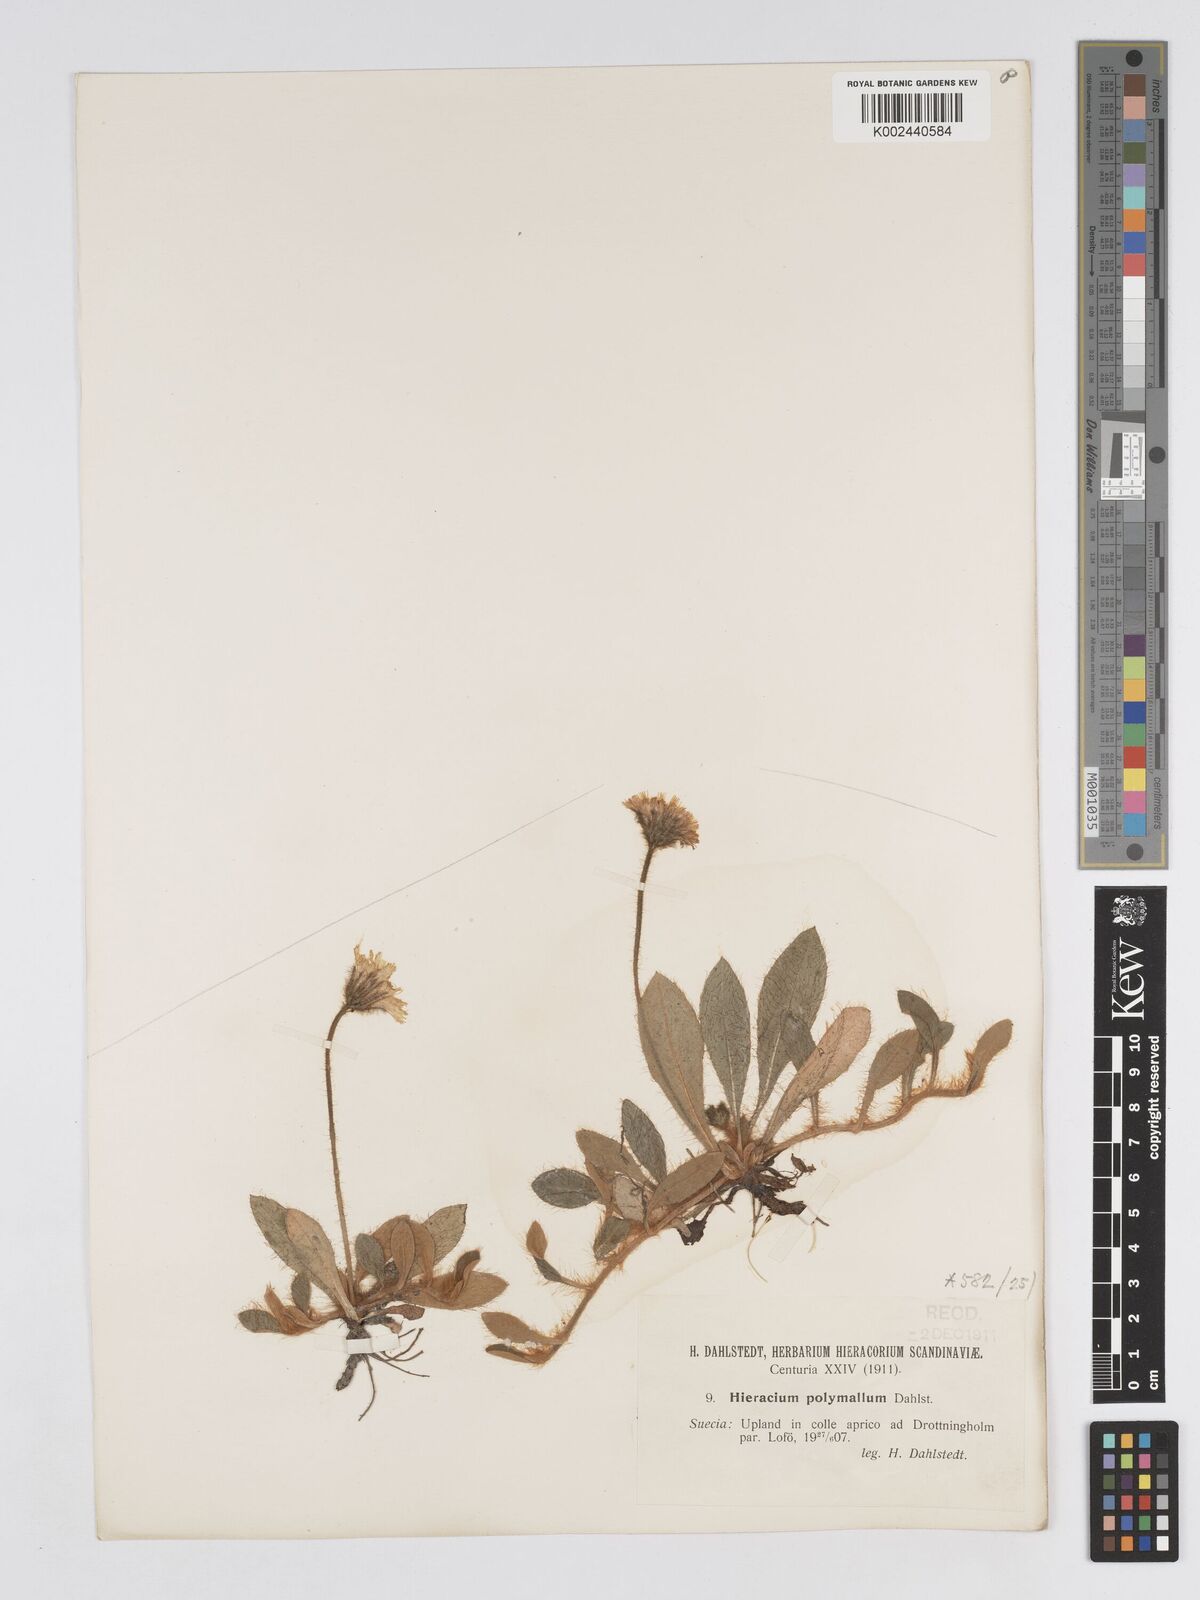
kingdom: Plantae
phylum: Tracheophyta
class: Magnoliopsida
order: Asterales
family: Asteraceae
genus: Pilosella
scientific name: Pilosella longisquama
